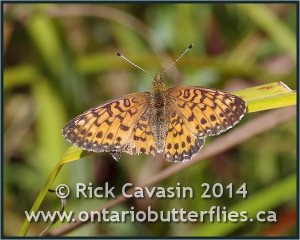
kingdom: Animalia
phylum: Arthropoda
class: Insecta
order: Lepidoptera
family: Nymphalidae
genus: Boloria
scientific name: Boloria selene
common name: Silver-bordered Fritillary
